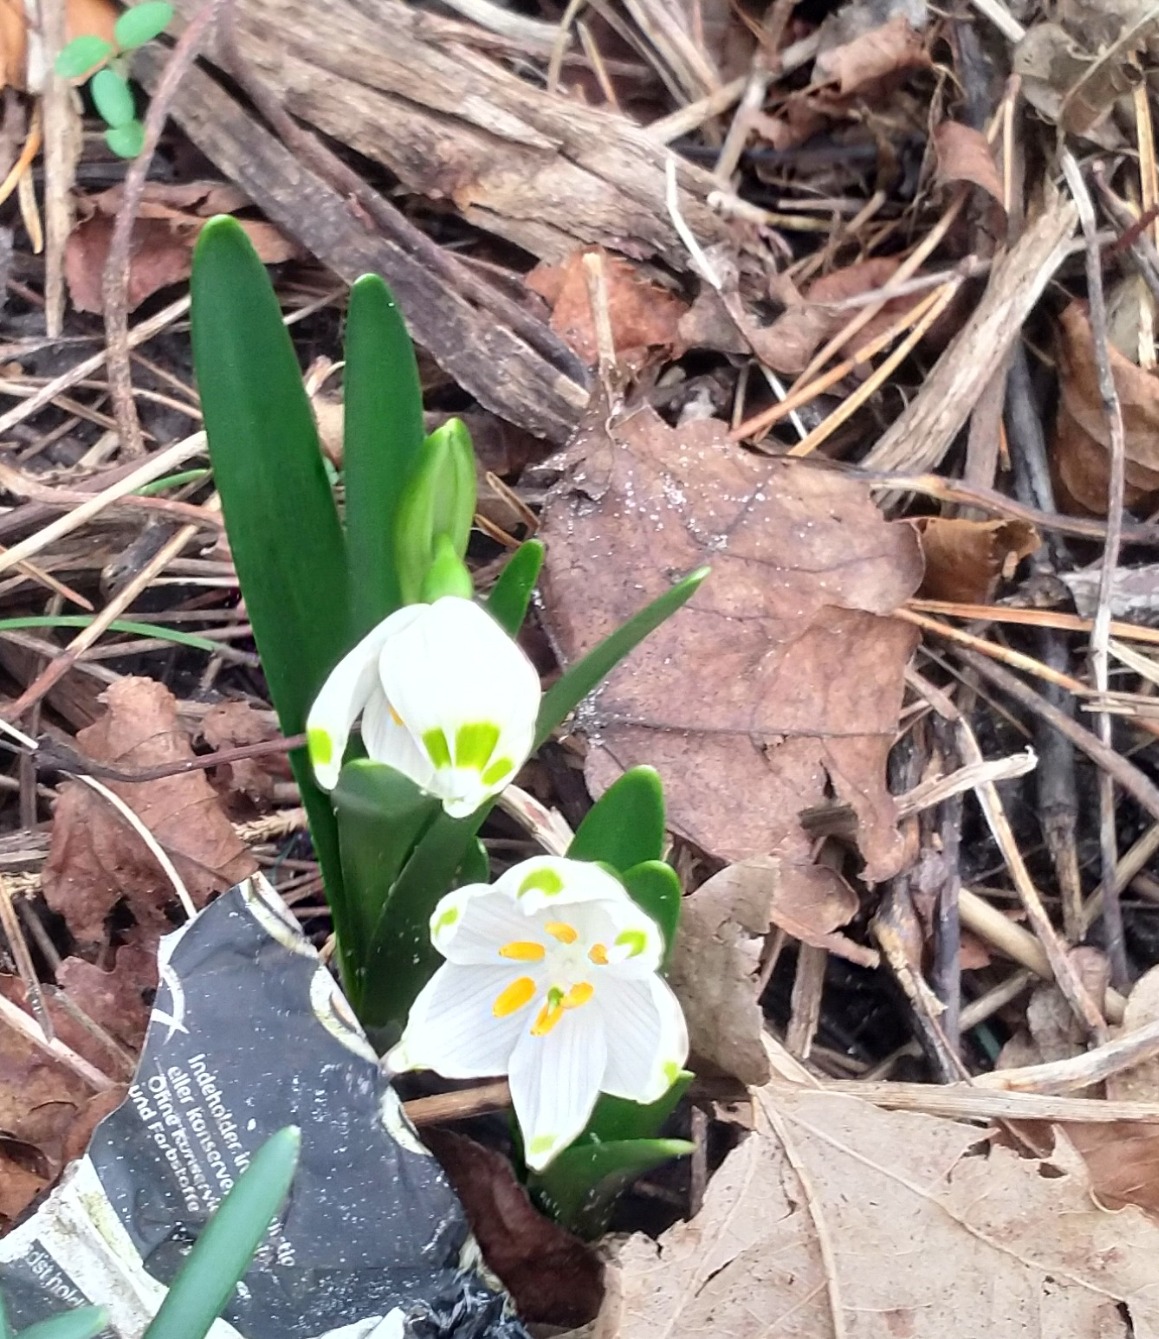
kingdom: Plantae
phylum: Tracheophyta
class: Liliopsida
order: Asparagales
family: Amaryllidaceae
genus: Leucojum
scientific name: Leucojum vernum
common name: Dorthealilje
